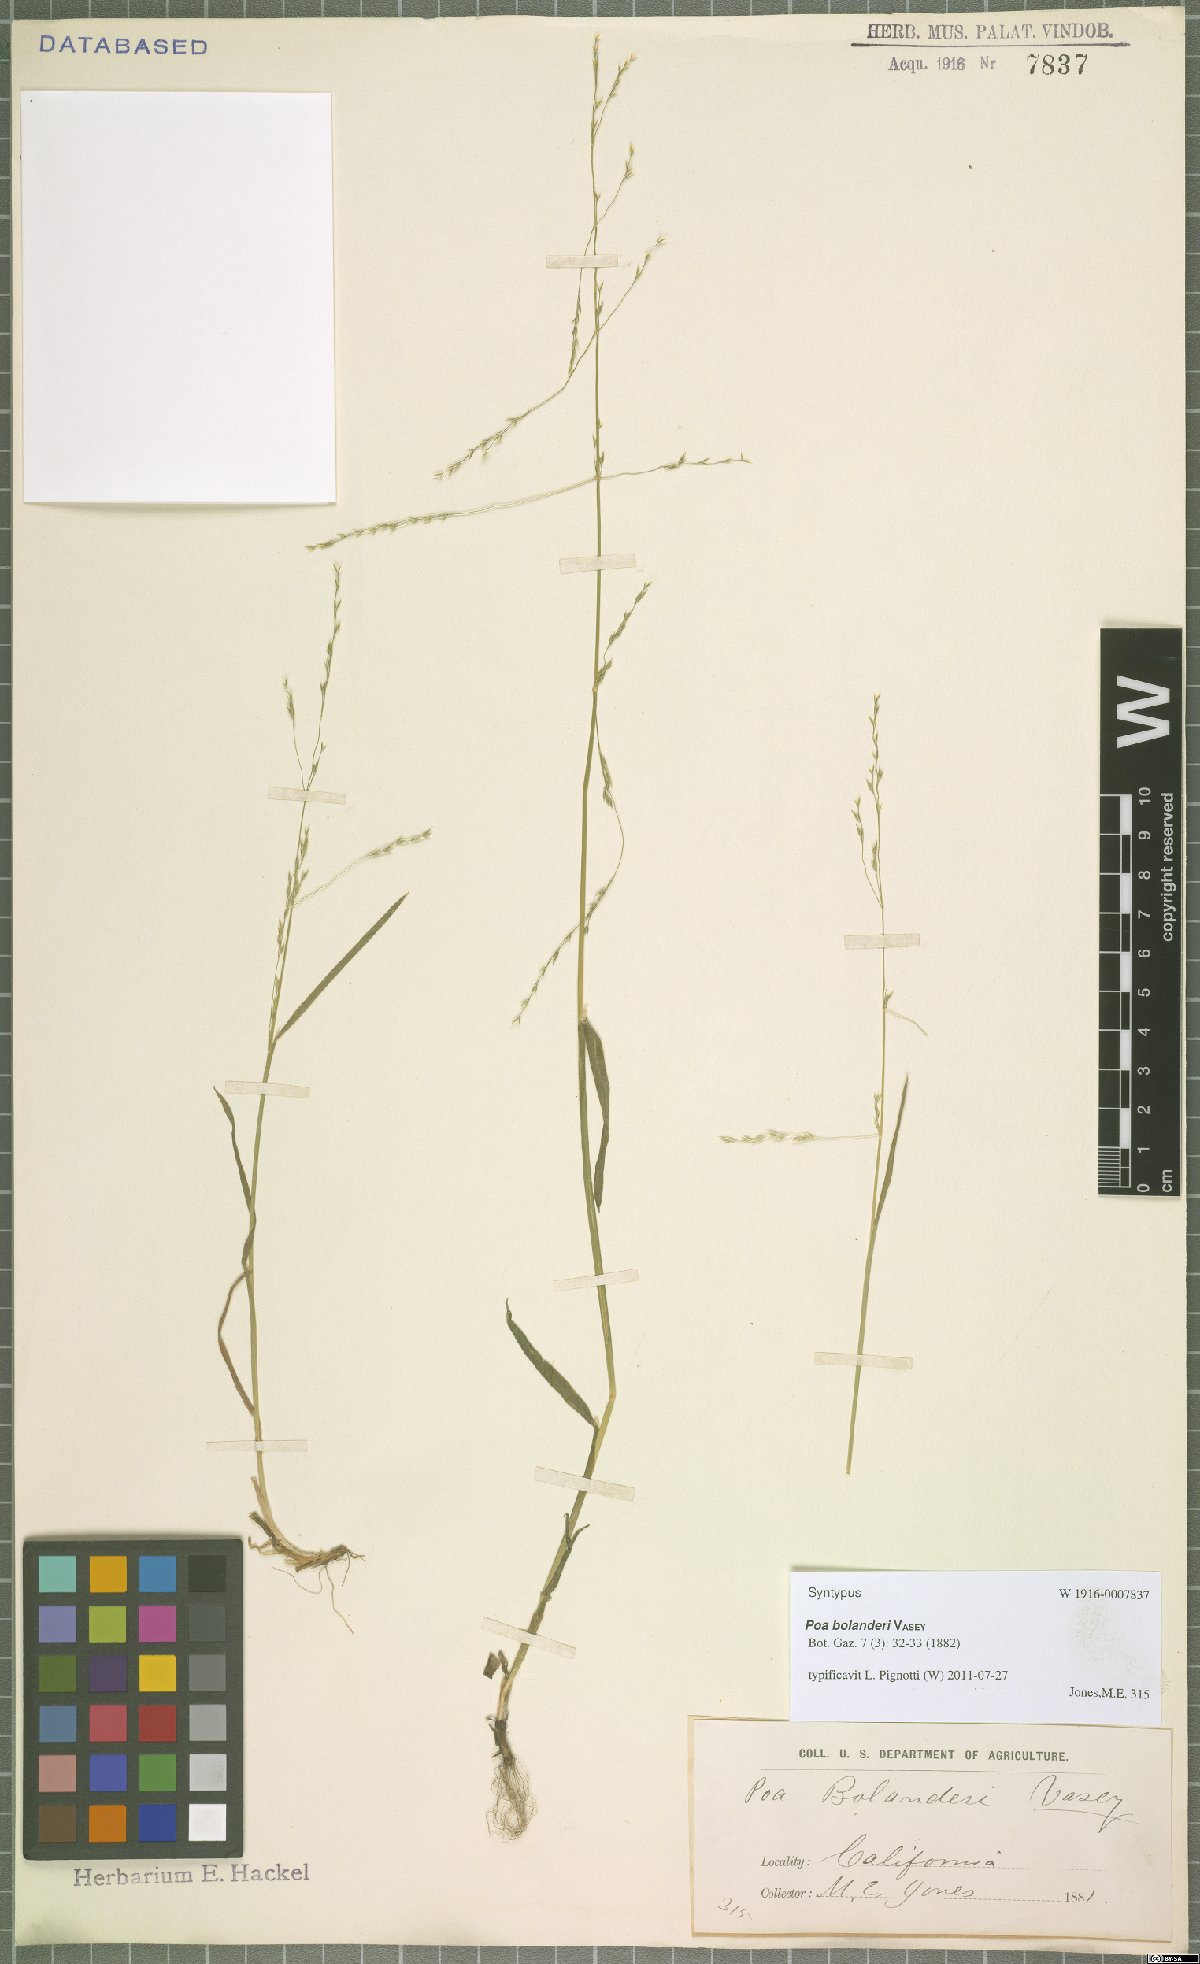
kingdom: Plantae
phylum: Tracheophyta
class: Liliopsida
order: Poales
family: Poaceae
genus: Poa
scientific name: Poa bolanderi
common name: Bolander's bluegrass
